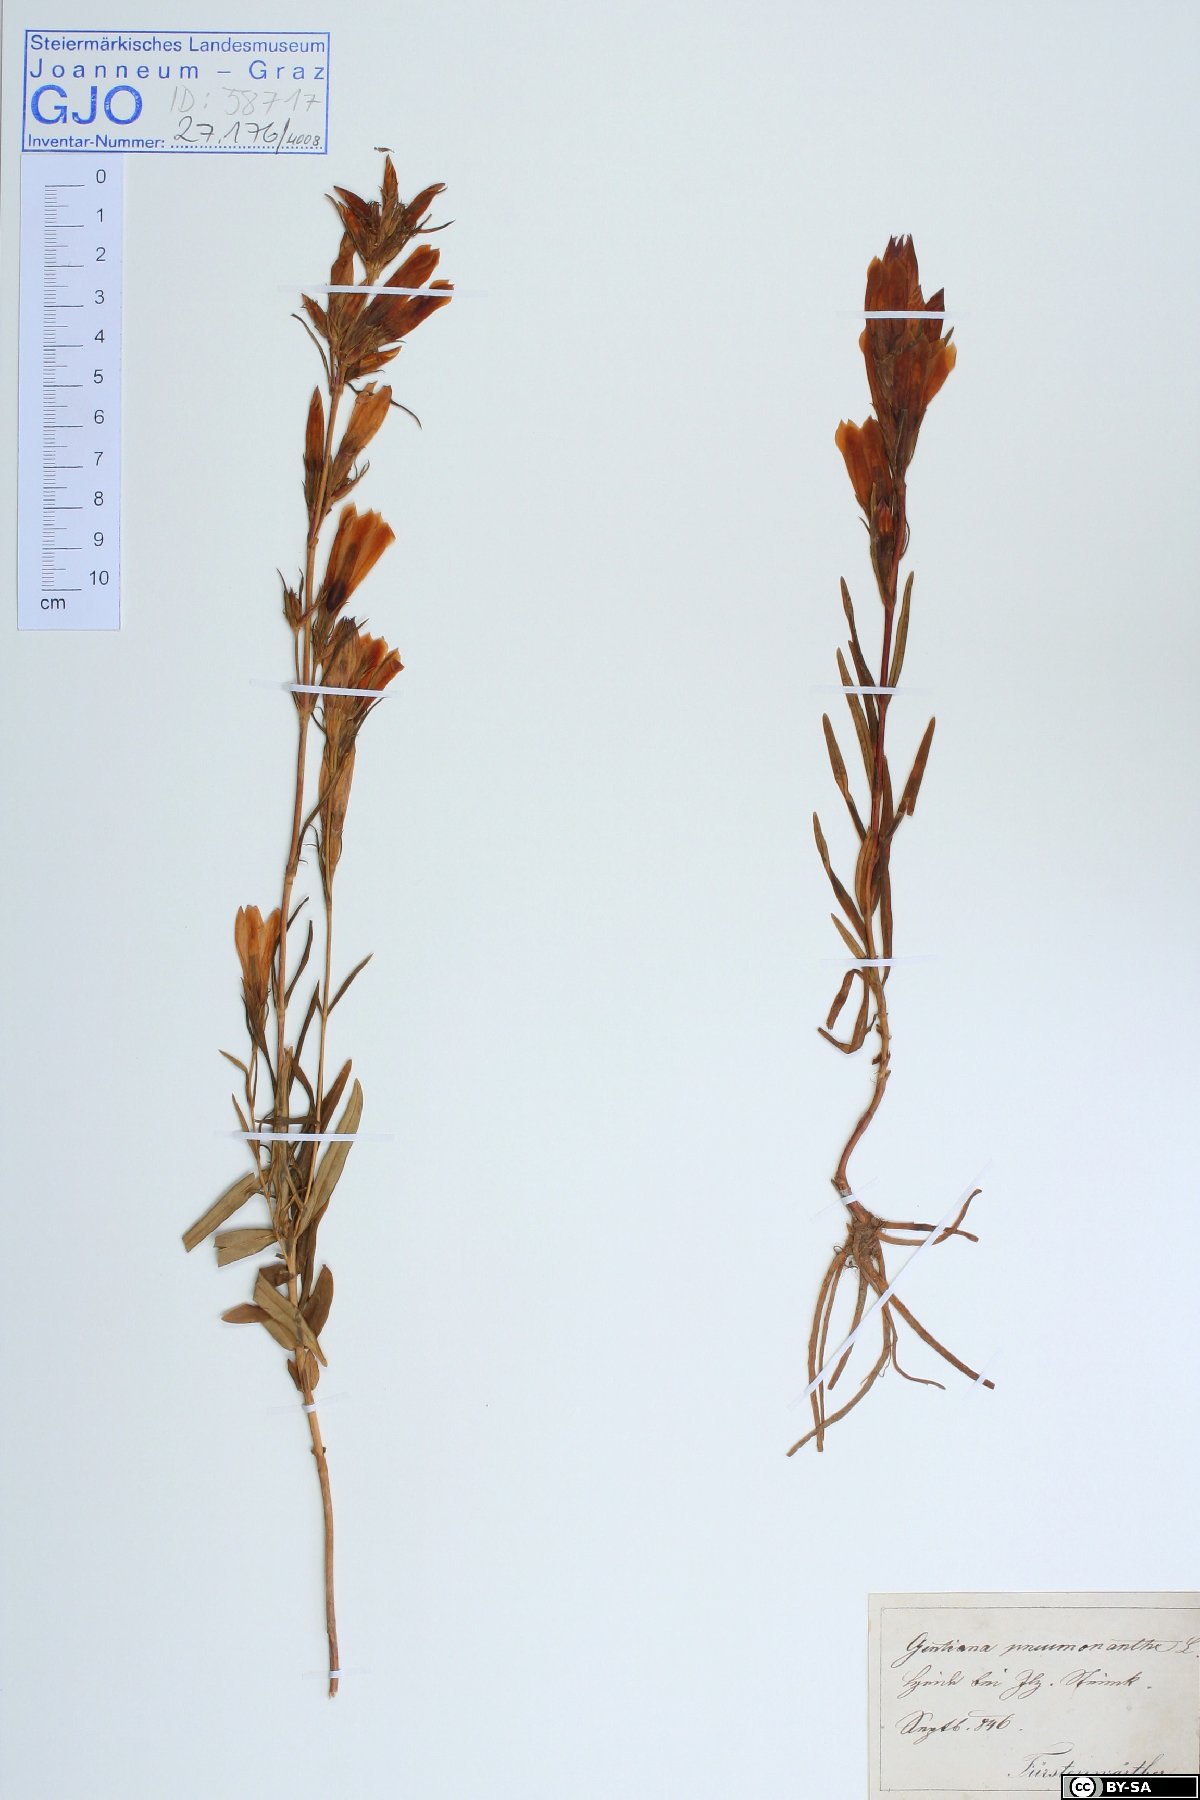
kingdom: Plantae
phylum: Tracheophyta
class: Magnoliopsida
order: Gentianales
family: Gentianaceae
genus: Gentiana
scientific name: Gentiana pneumonanthe
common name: Marsh gentian
